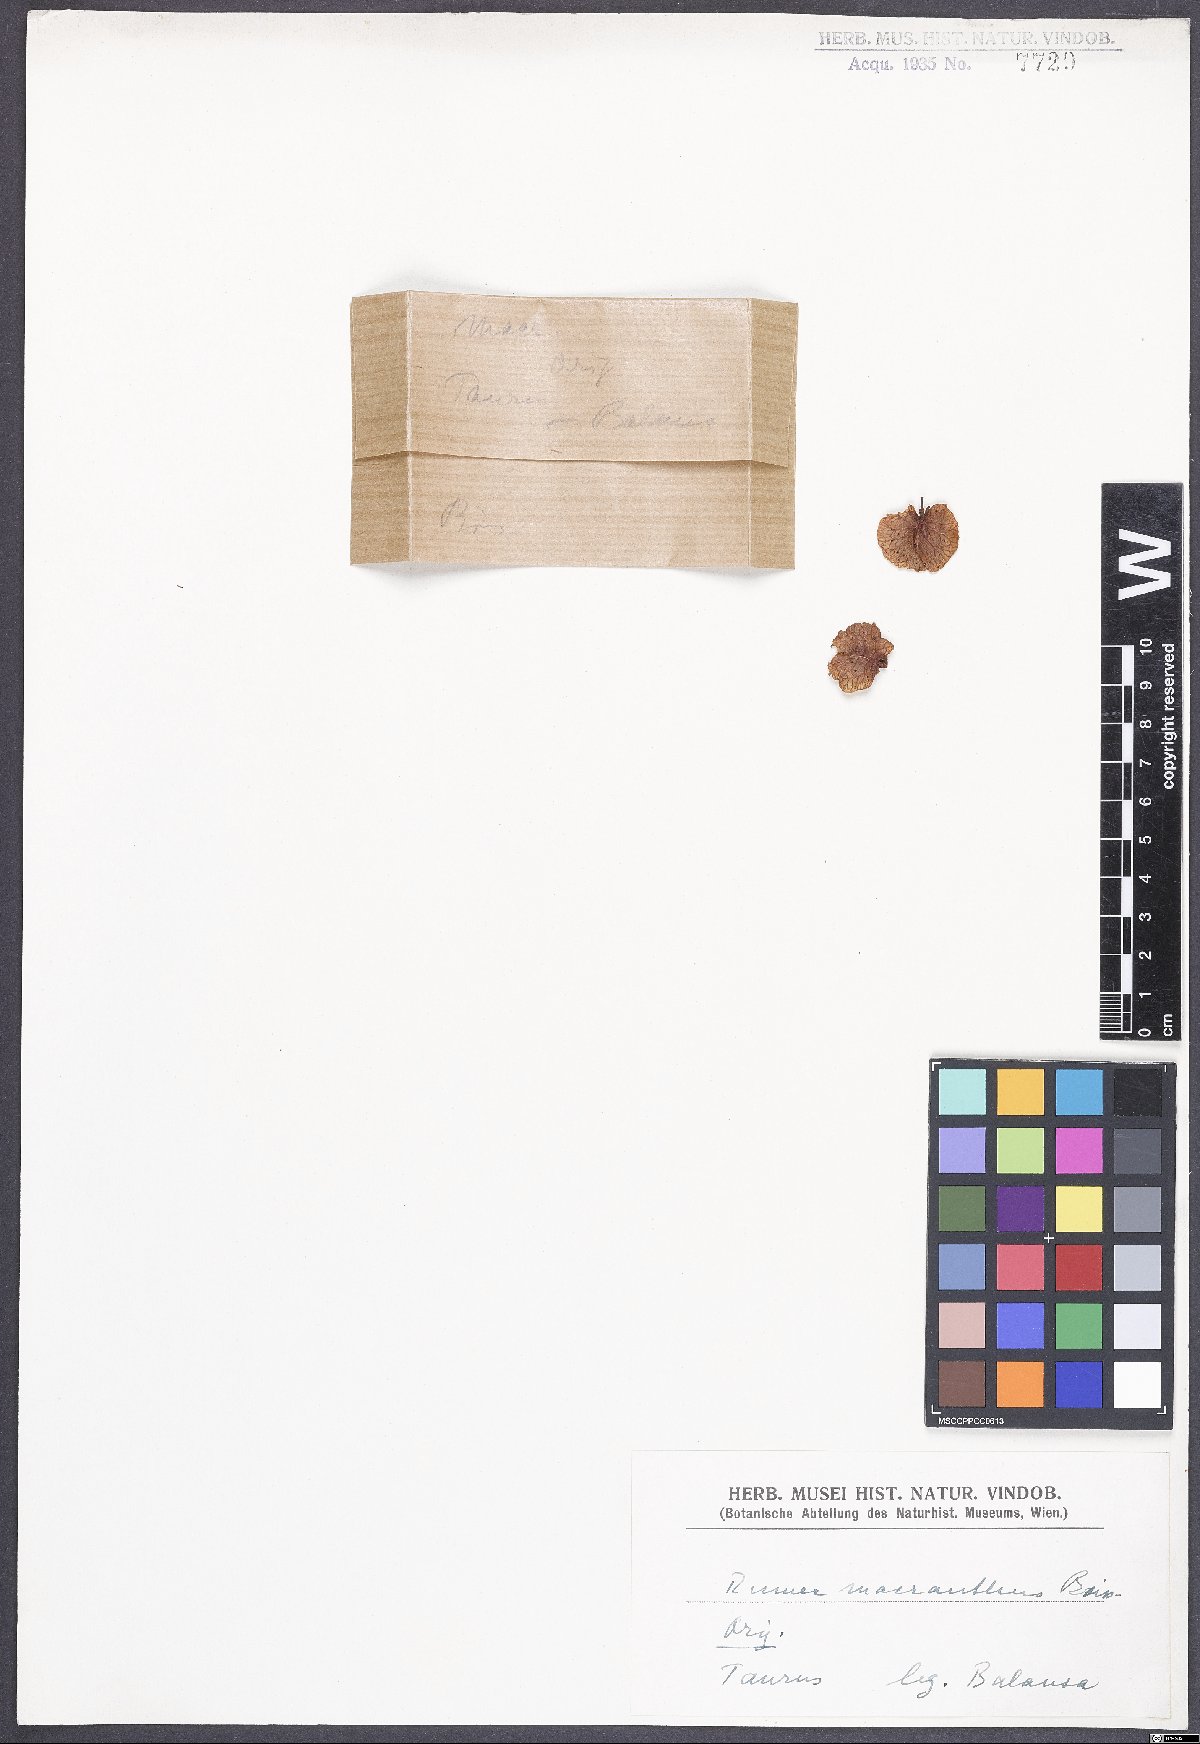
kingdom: Plantae
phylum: Tracheophyta
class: Magnoliopsida
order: Caryophyllales
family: Polygonaceae
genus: Rumex
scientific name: Rumex angustifolius
